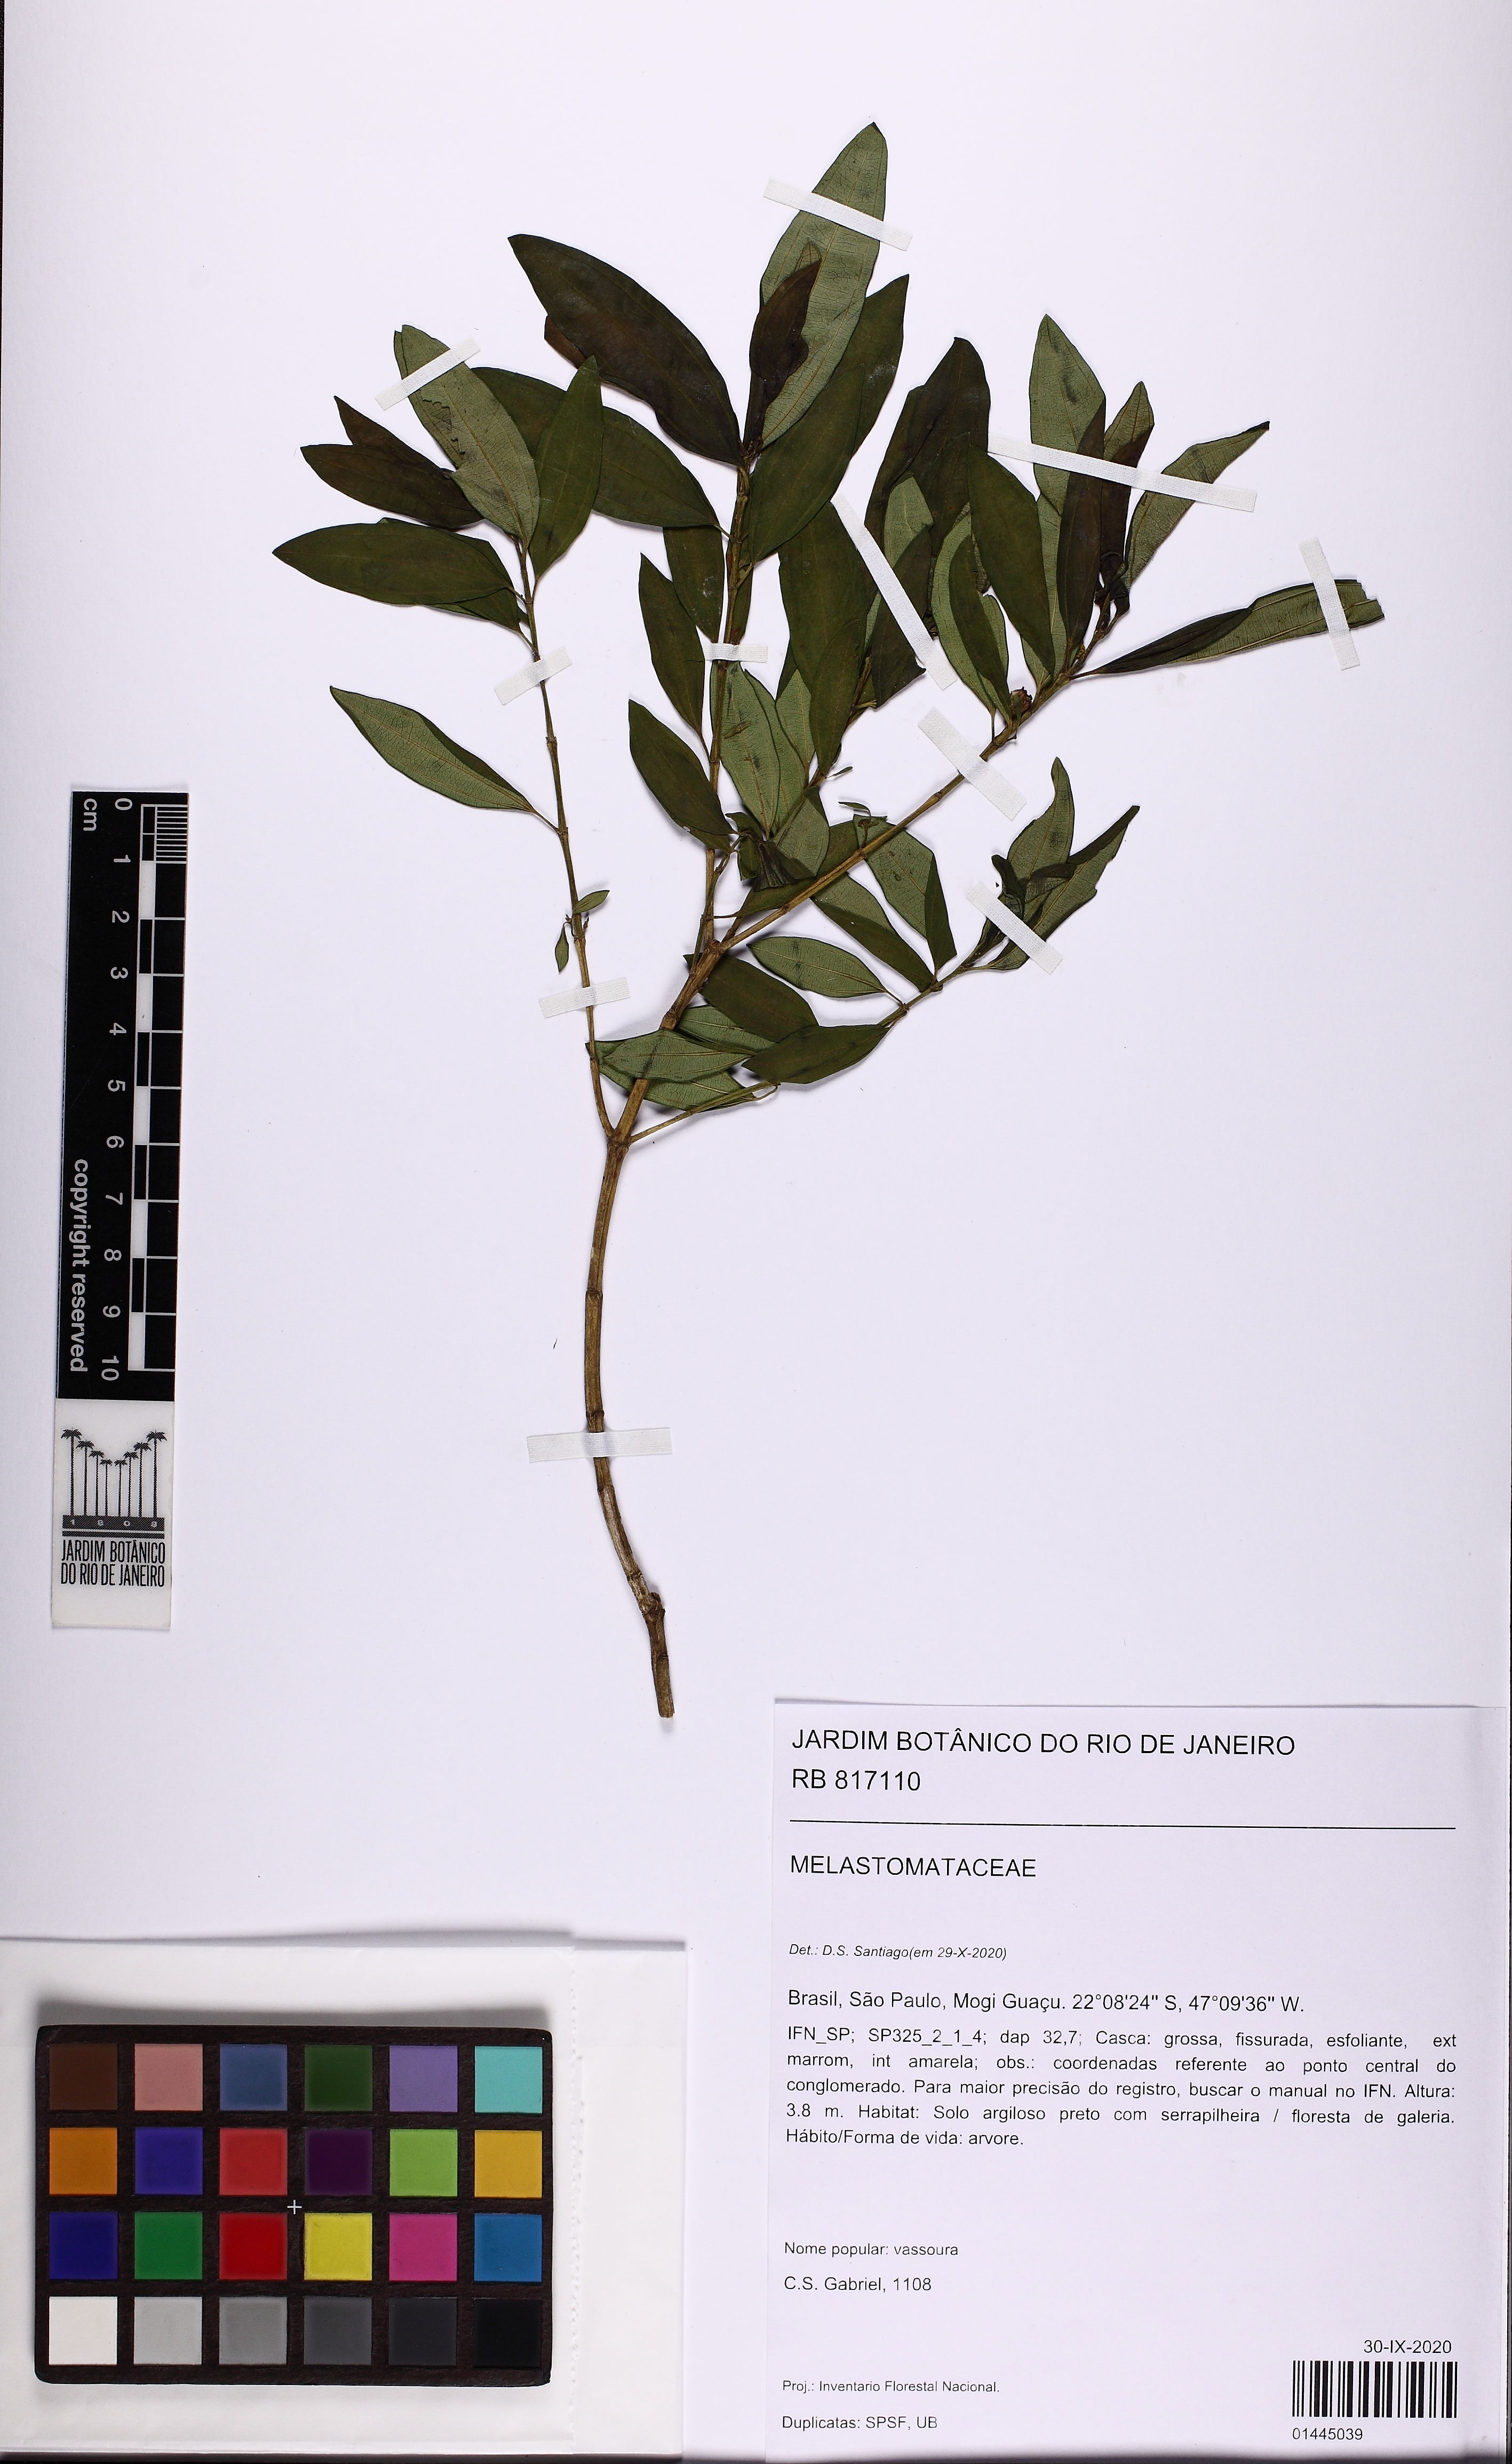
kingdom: Plantae
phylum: Tracheophyta
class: Magnoliopsida
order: Myrtales
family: Melastomataceae
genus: Microlicia
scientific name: Microlicia parviflora
